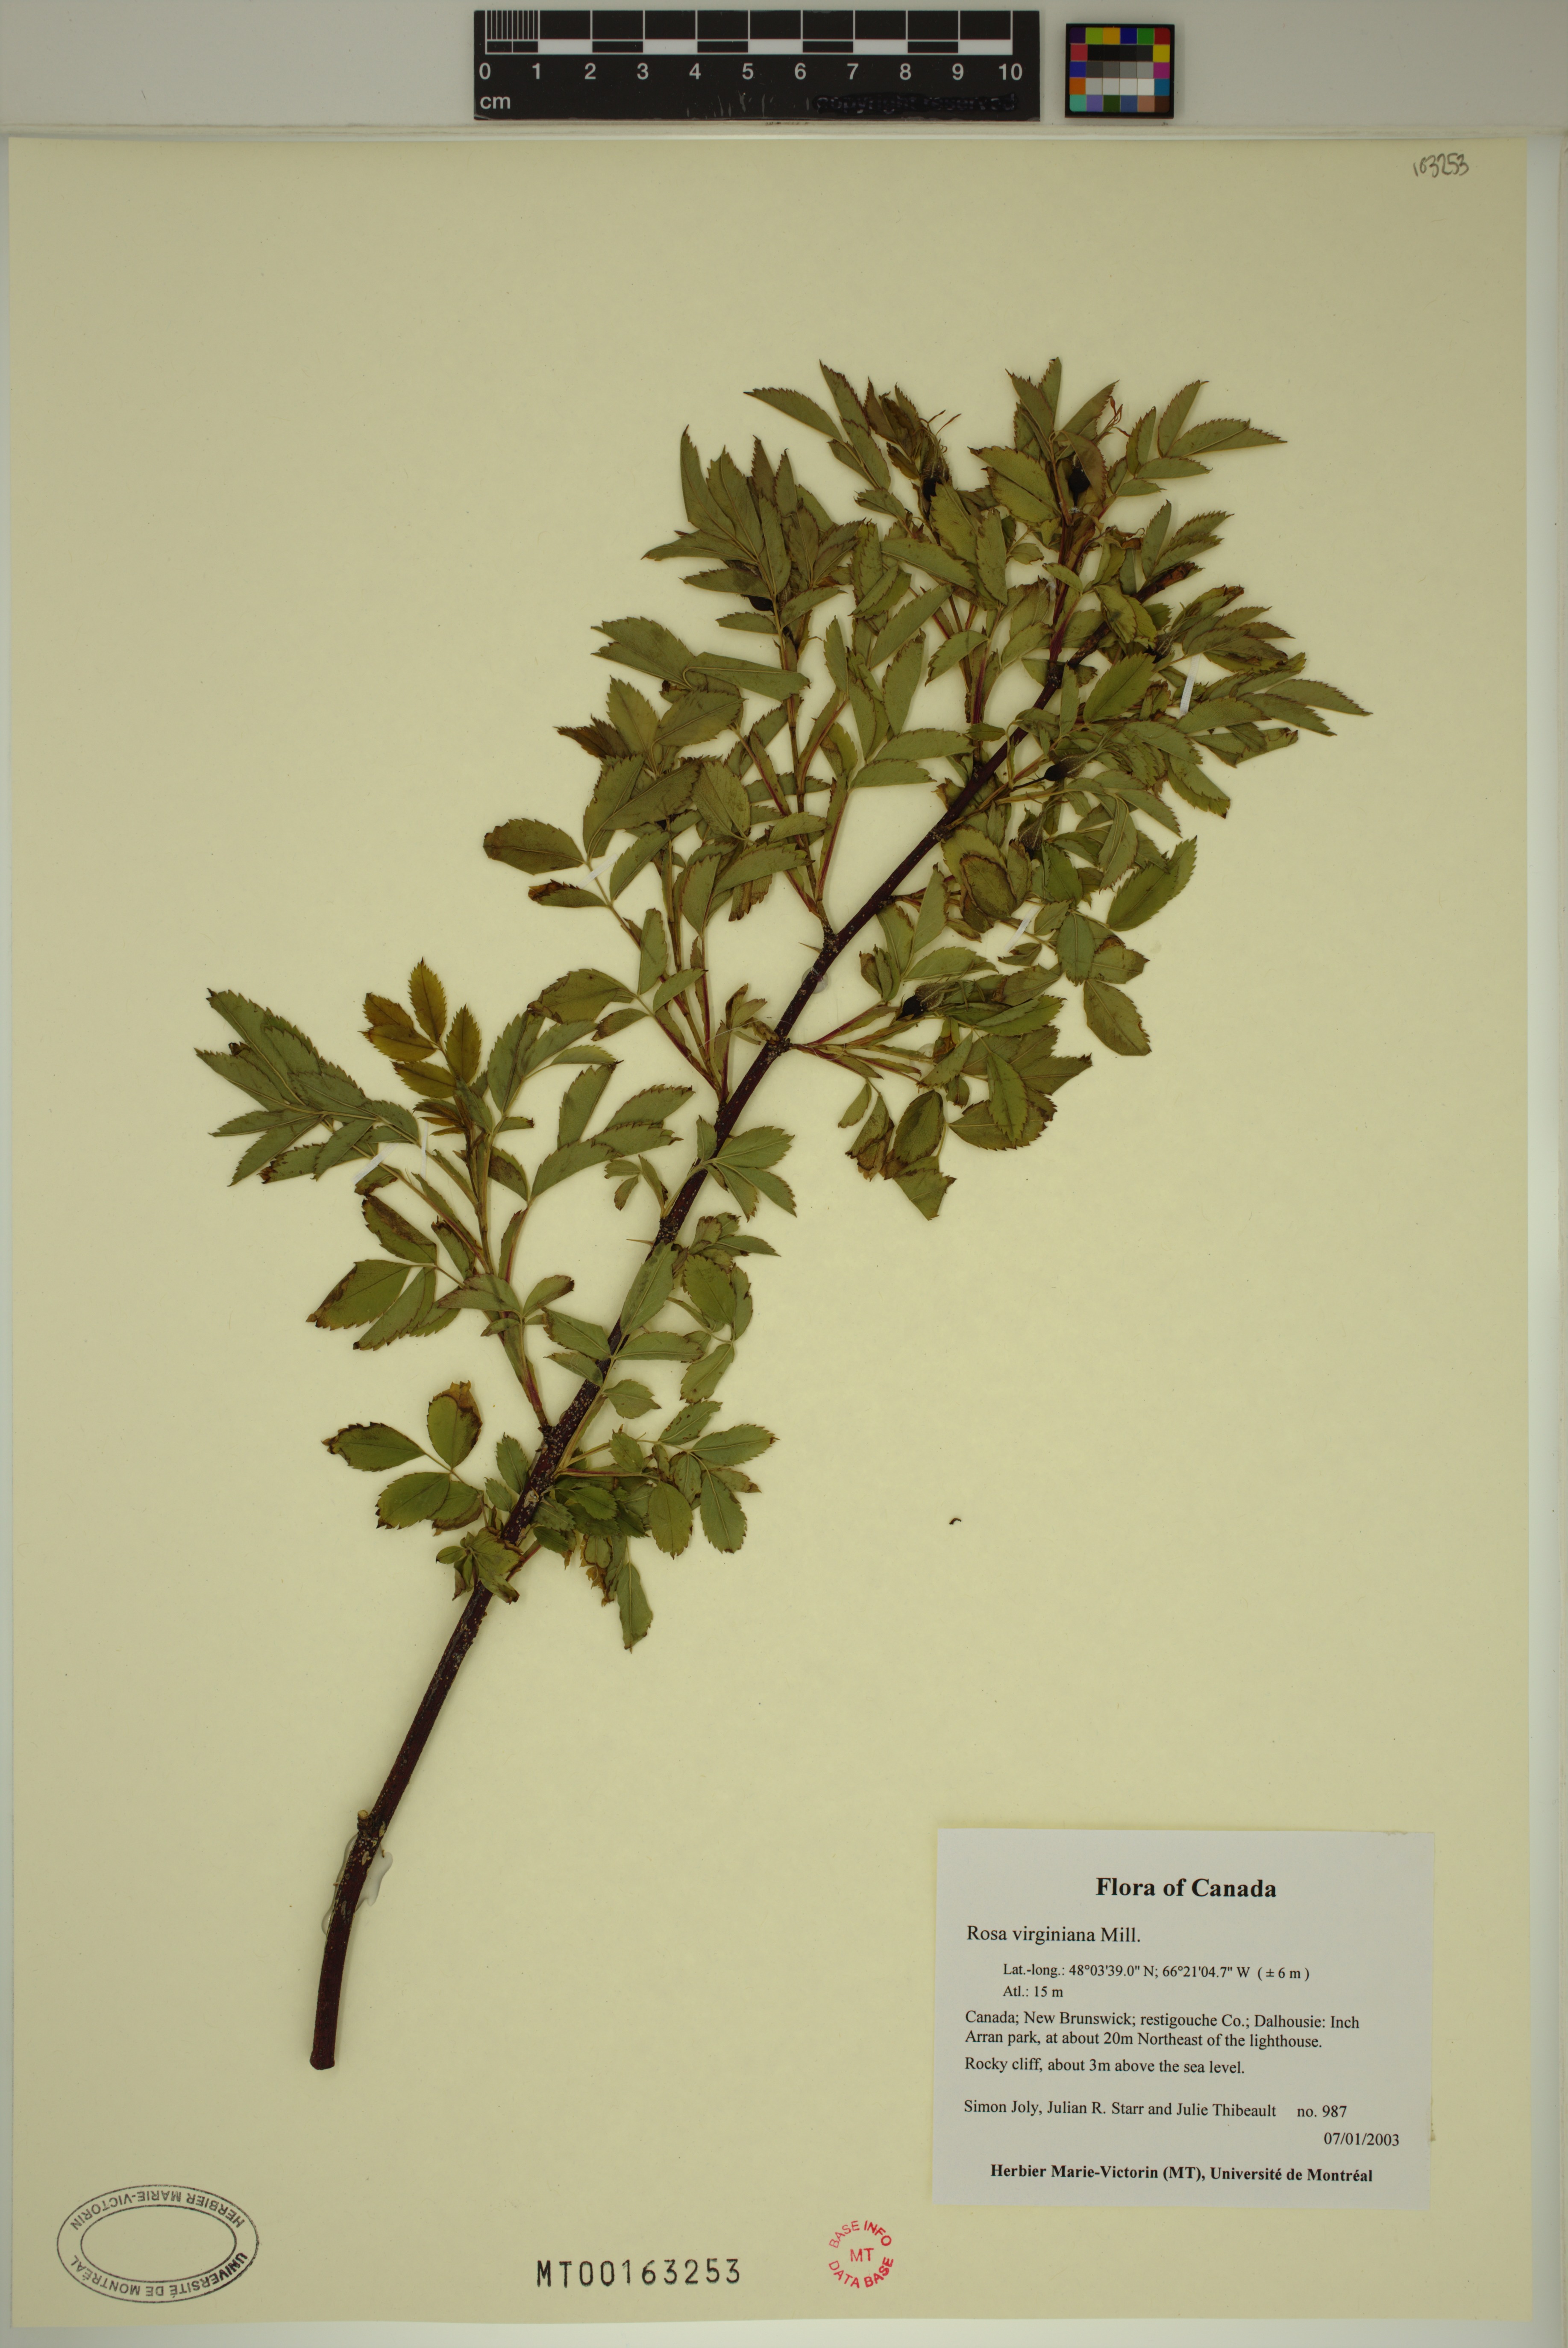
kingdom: Plantae
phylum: Tracheophyta
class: Magnoliopsida
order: Rosales
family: Rosaceae
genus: Rosa
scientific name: Rosa carolina
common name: Pasture rose
